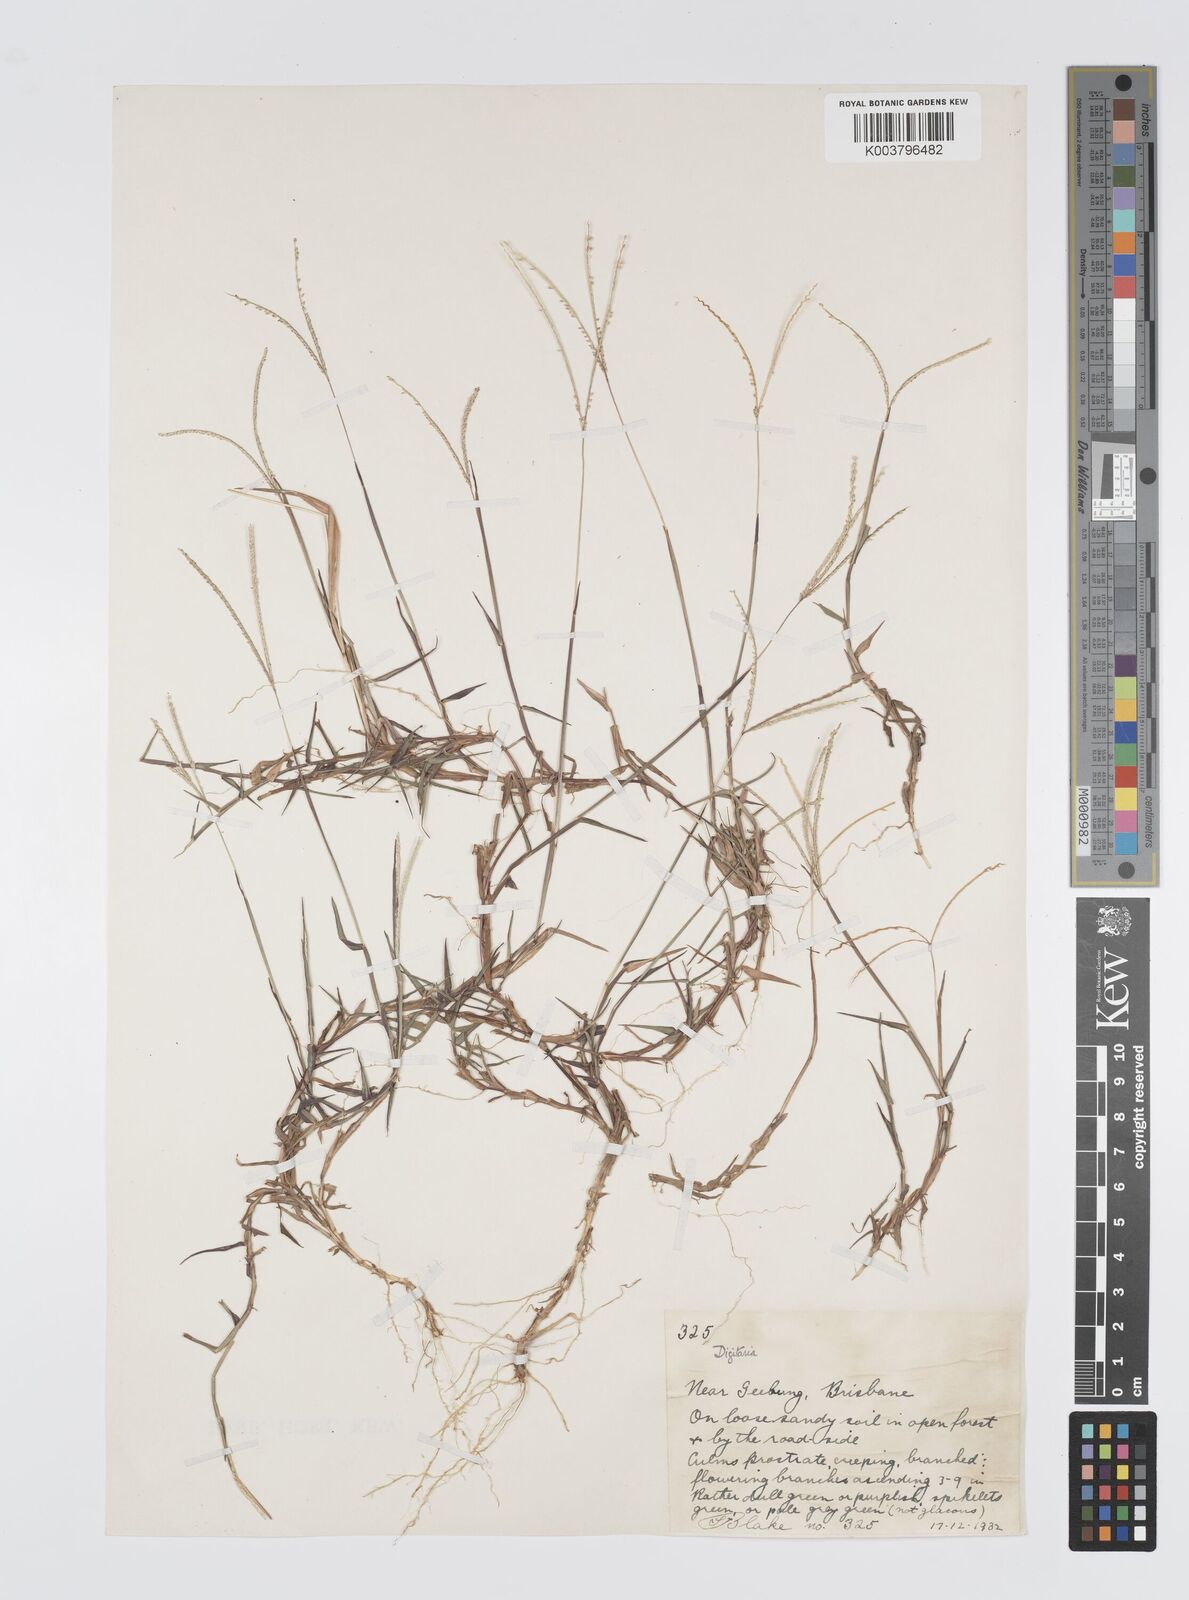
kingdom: Plantae
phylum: Tracheophyta
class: Liliopsida
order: Poales
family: Poaceae
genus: Digitaria
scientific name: Digitaria longiflora
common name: Wire crabgrass
